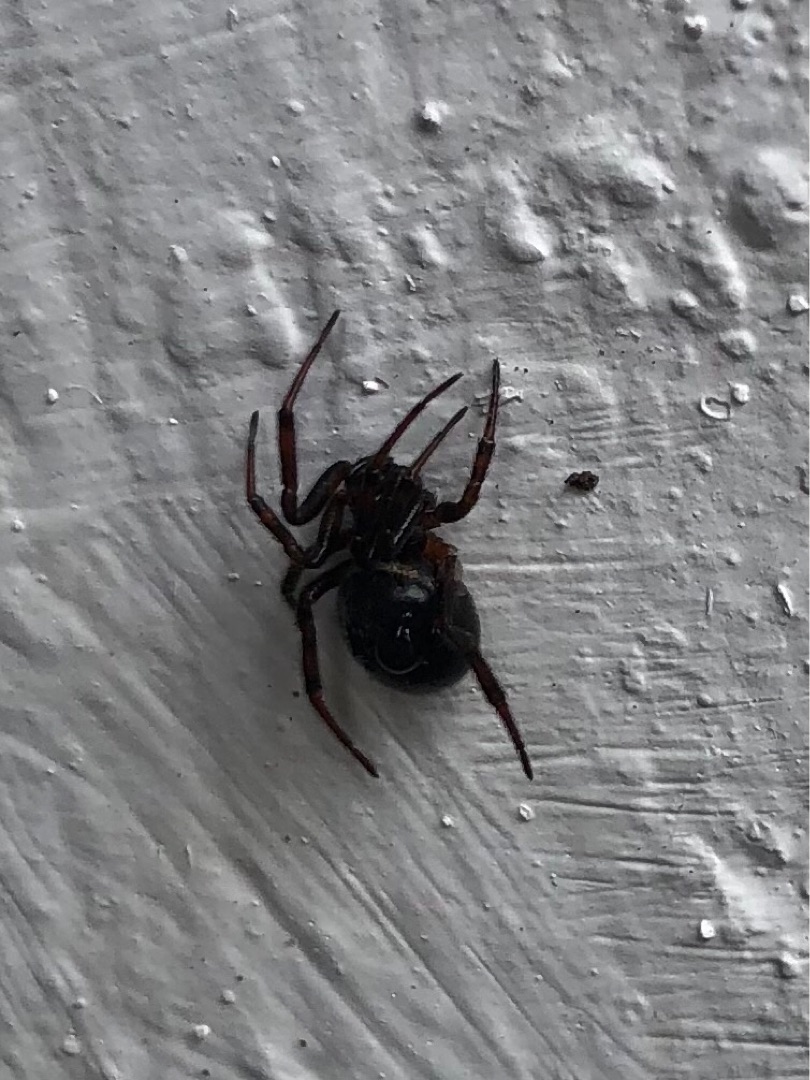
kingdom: Animalia
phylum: Arthropoda
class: Arachnida
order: Araneae
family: Theridiidae
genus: Steatoda
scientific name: Steatoda bipunctata
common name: Fedtedderkop
